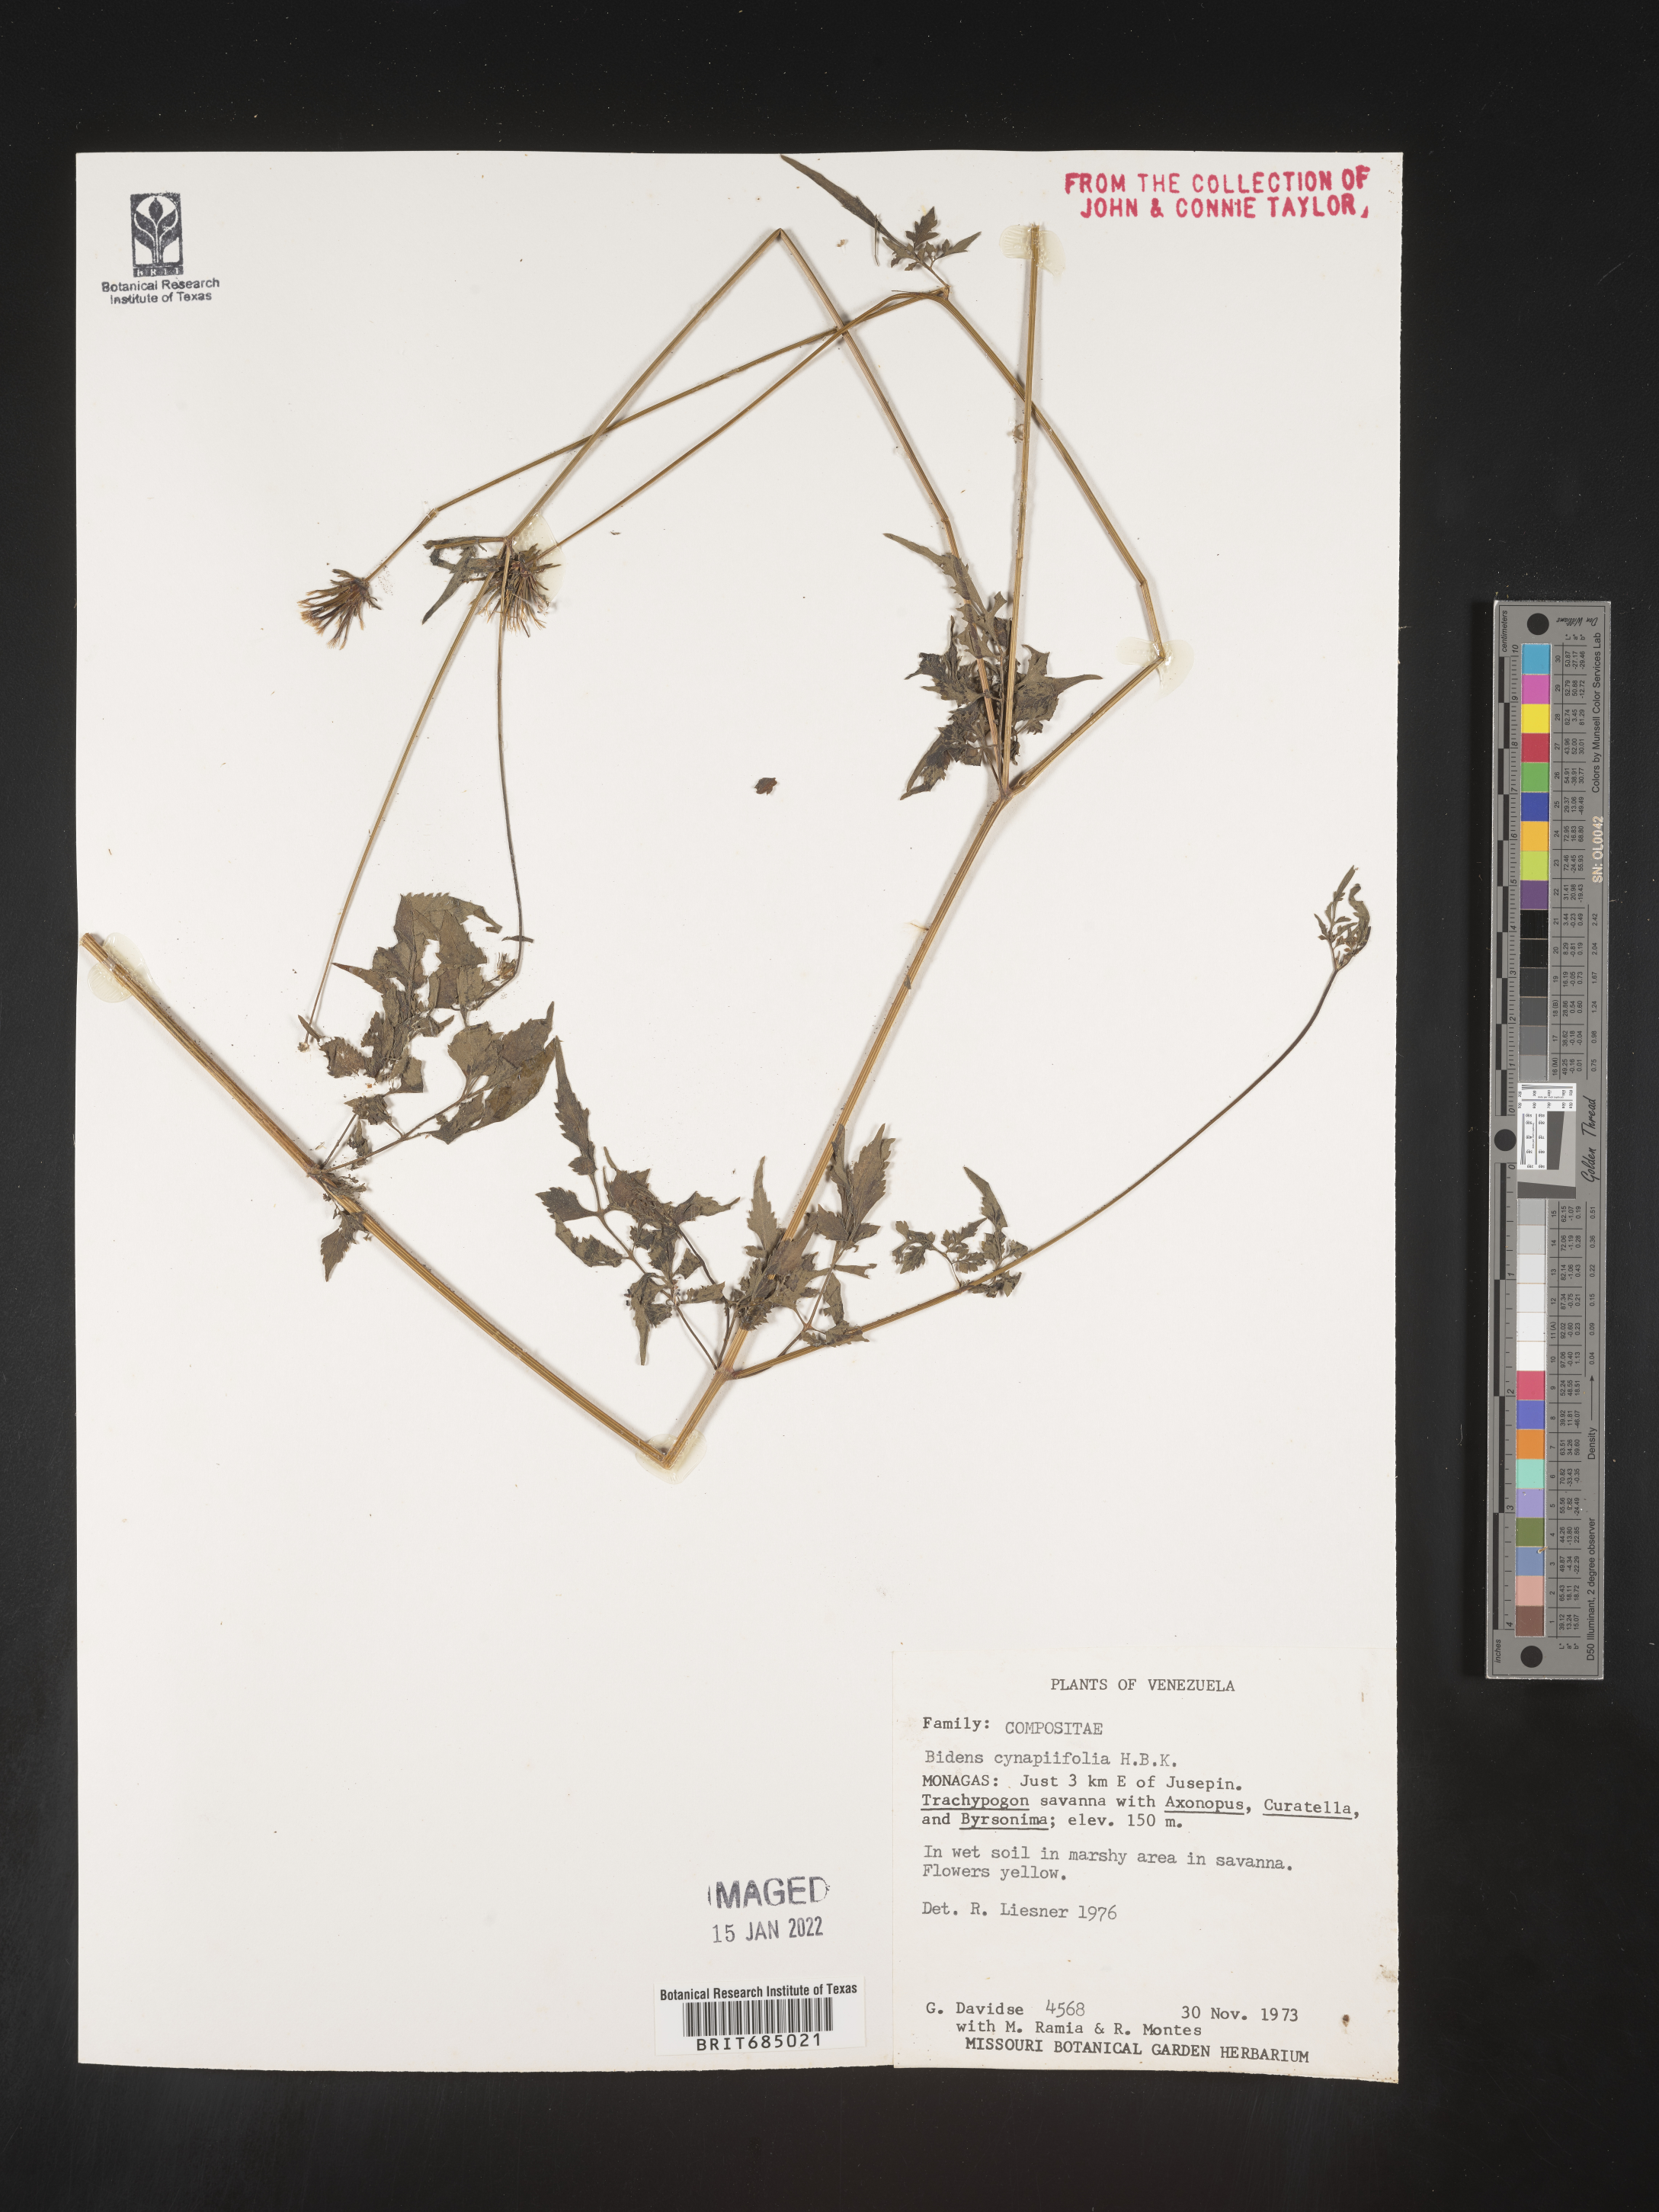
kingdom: Plantae
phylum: Tracheophyta
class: Magnoliopsida
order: Asterales
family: Asteraceae
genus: Bidens
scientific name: Bidens
